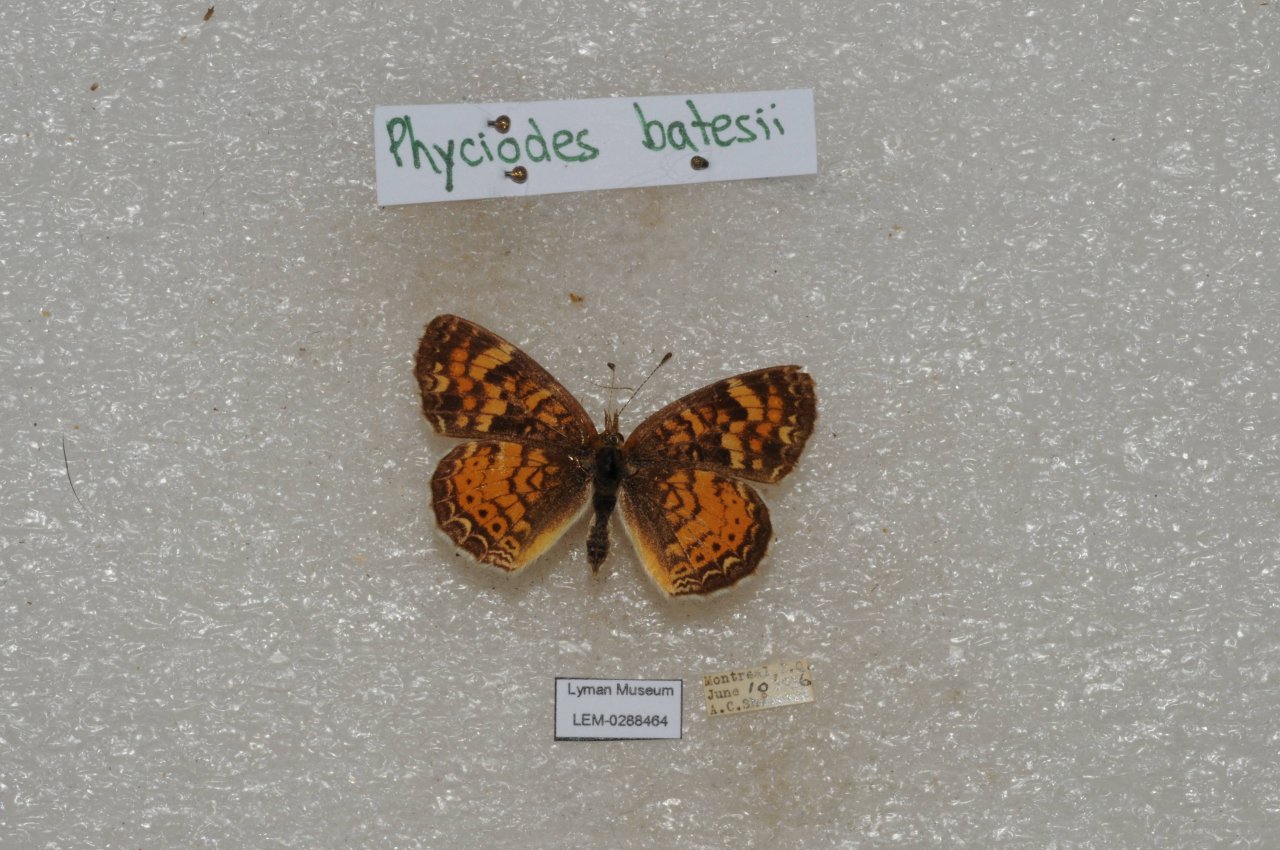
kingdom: Animalia
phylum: Arthropoda
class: Insecta
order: Lepidoptera
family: Nymphalidae
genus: Phyciodes
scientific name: Phyciodes batesii
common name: Tawny Crescent
